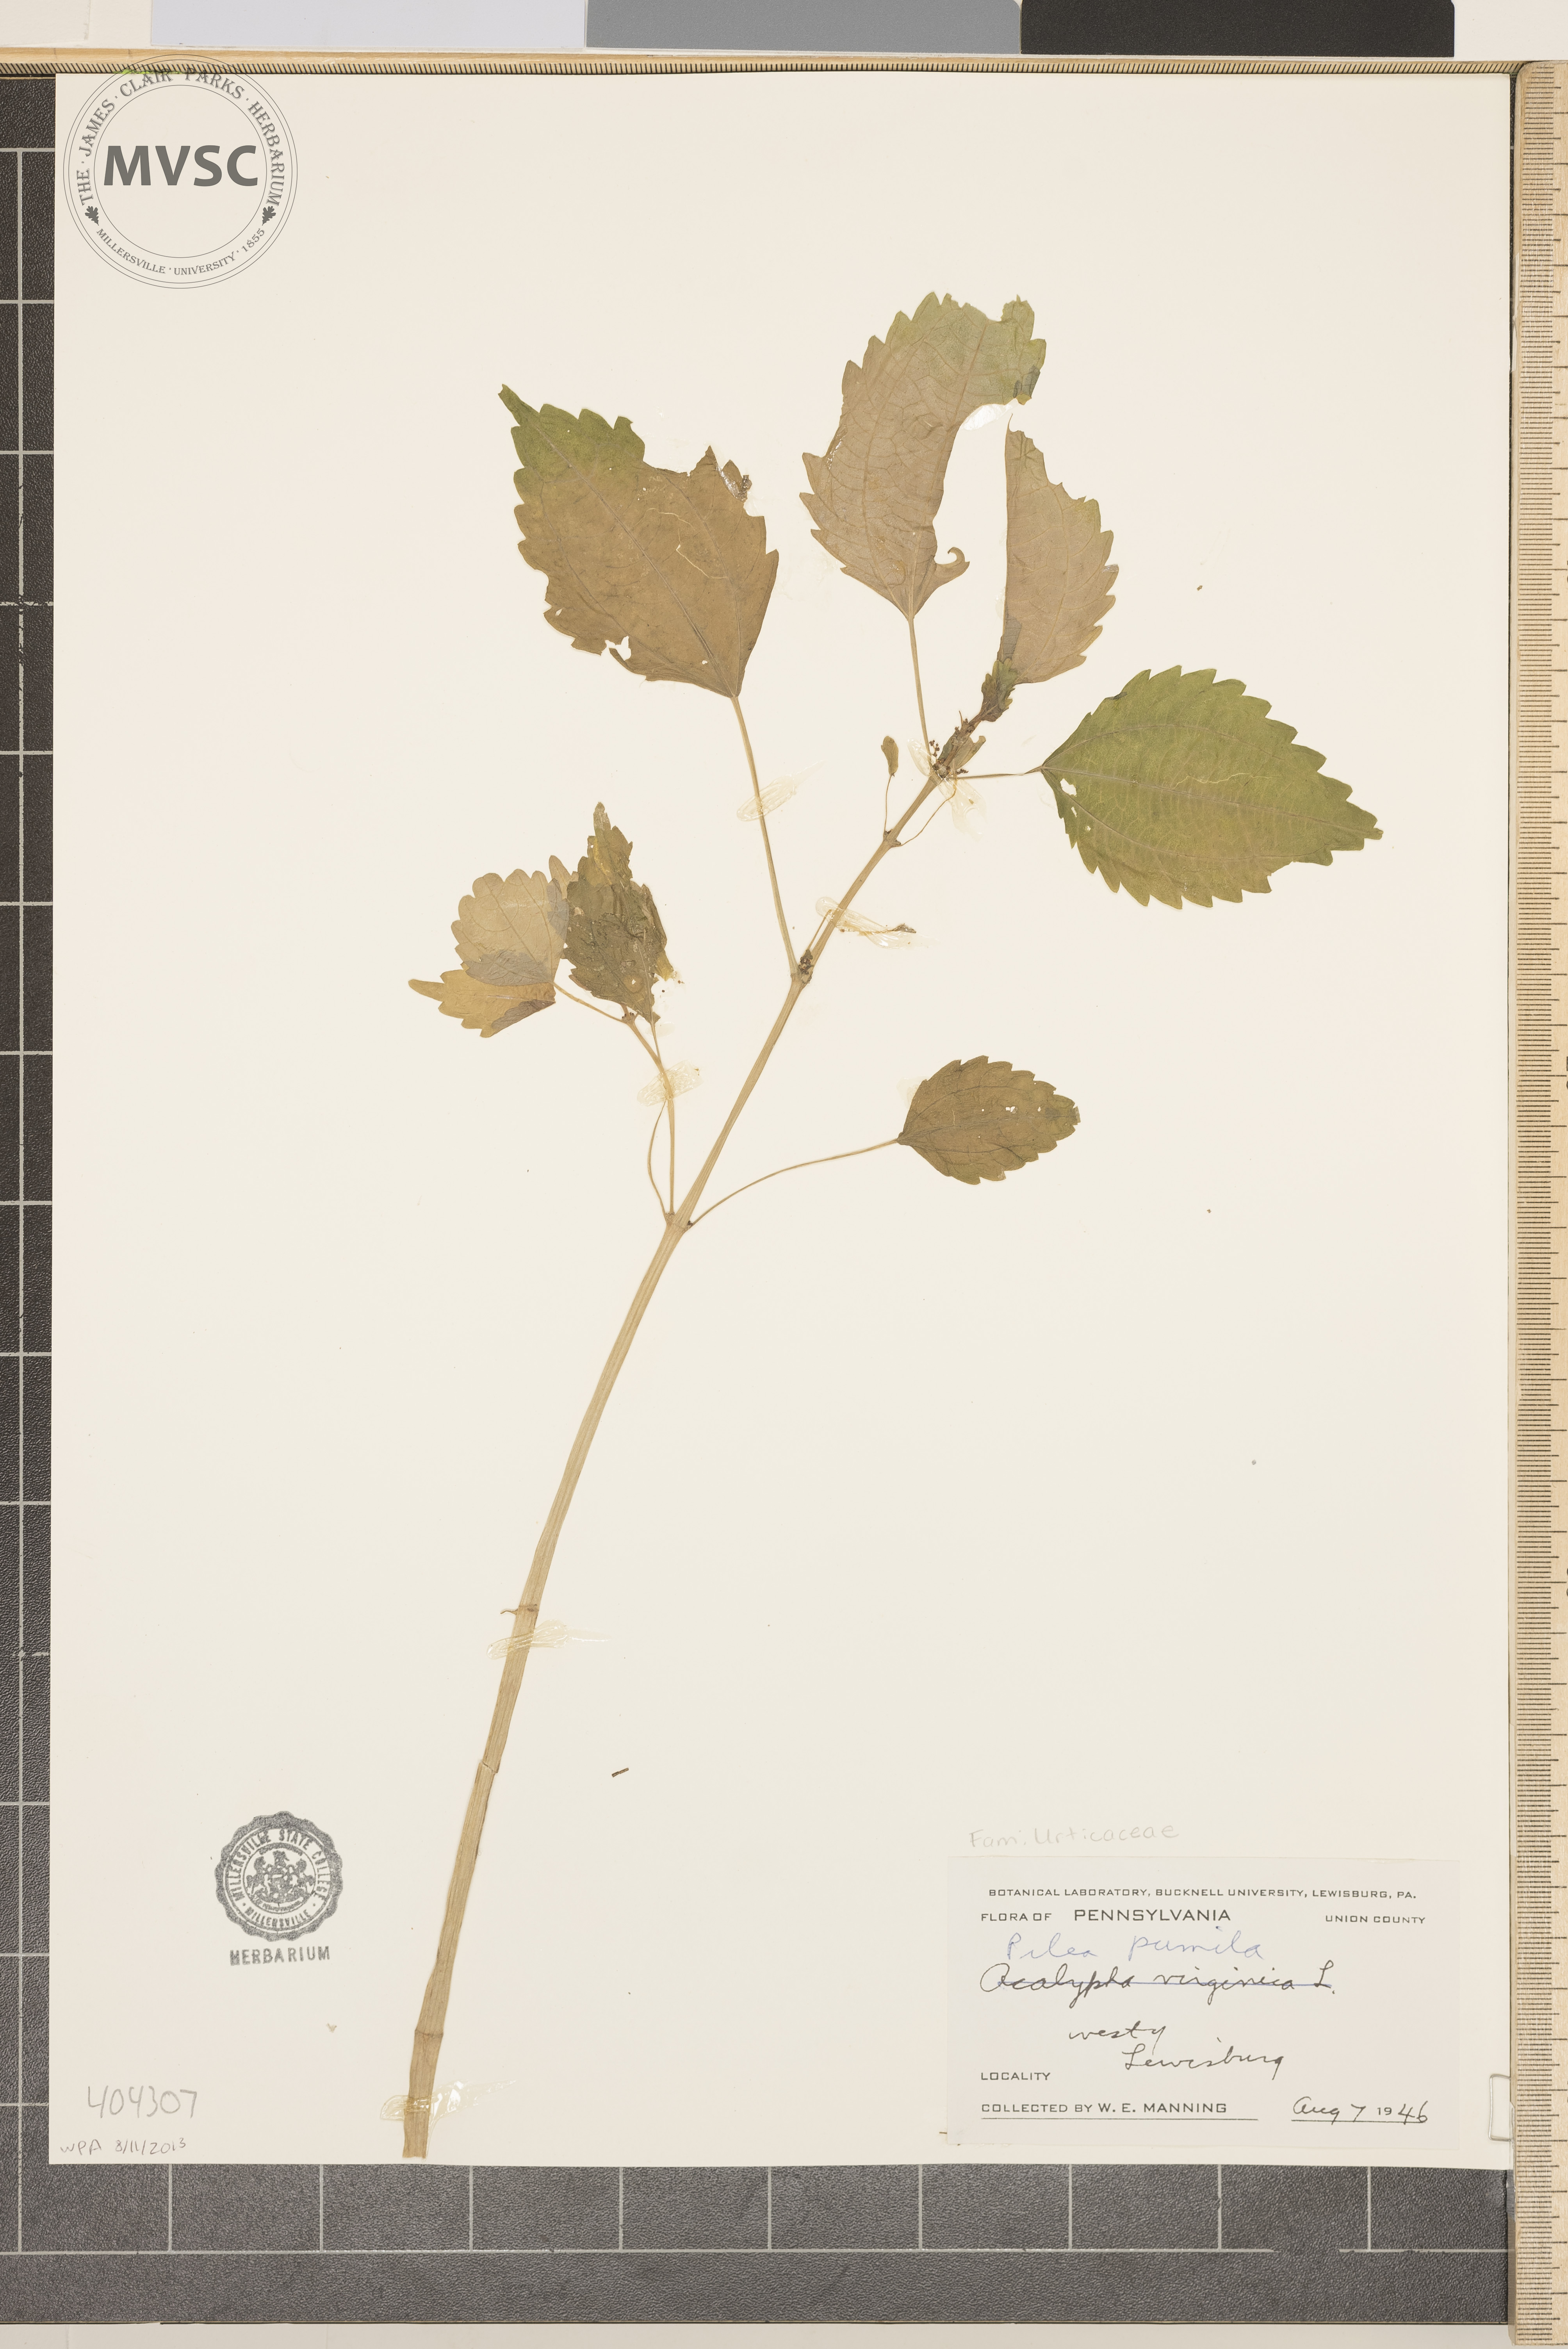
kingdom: Plantae
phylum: Tracheophyta
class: Magnoliopsida
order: Rosales
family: Urticaceae
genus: Pilea
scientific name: Pilea pumila
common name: Clearweed
